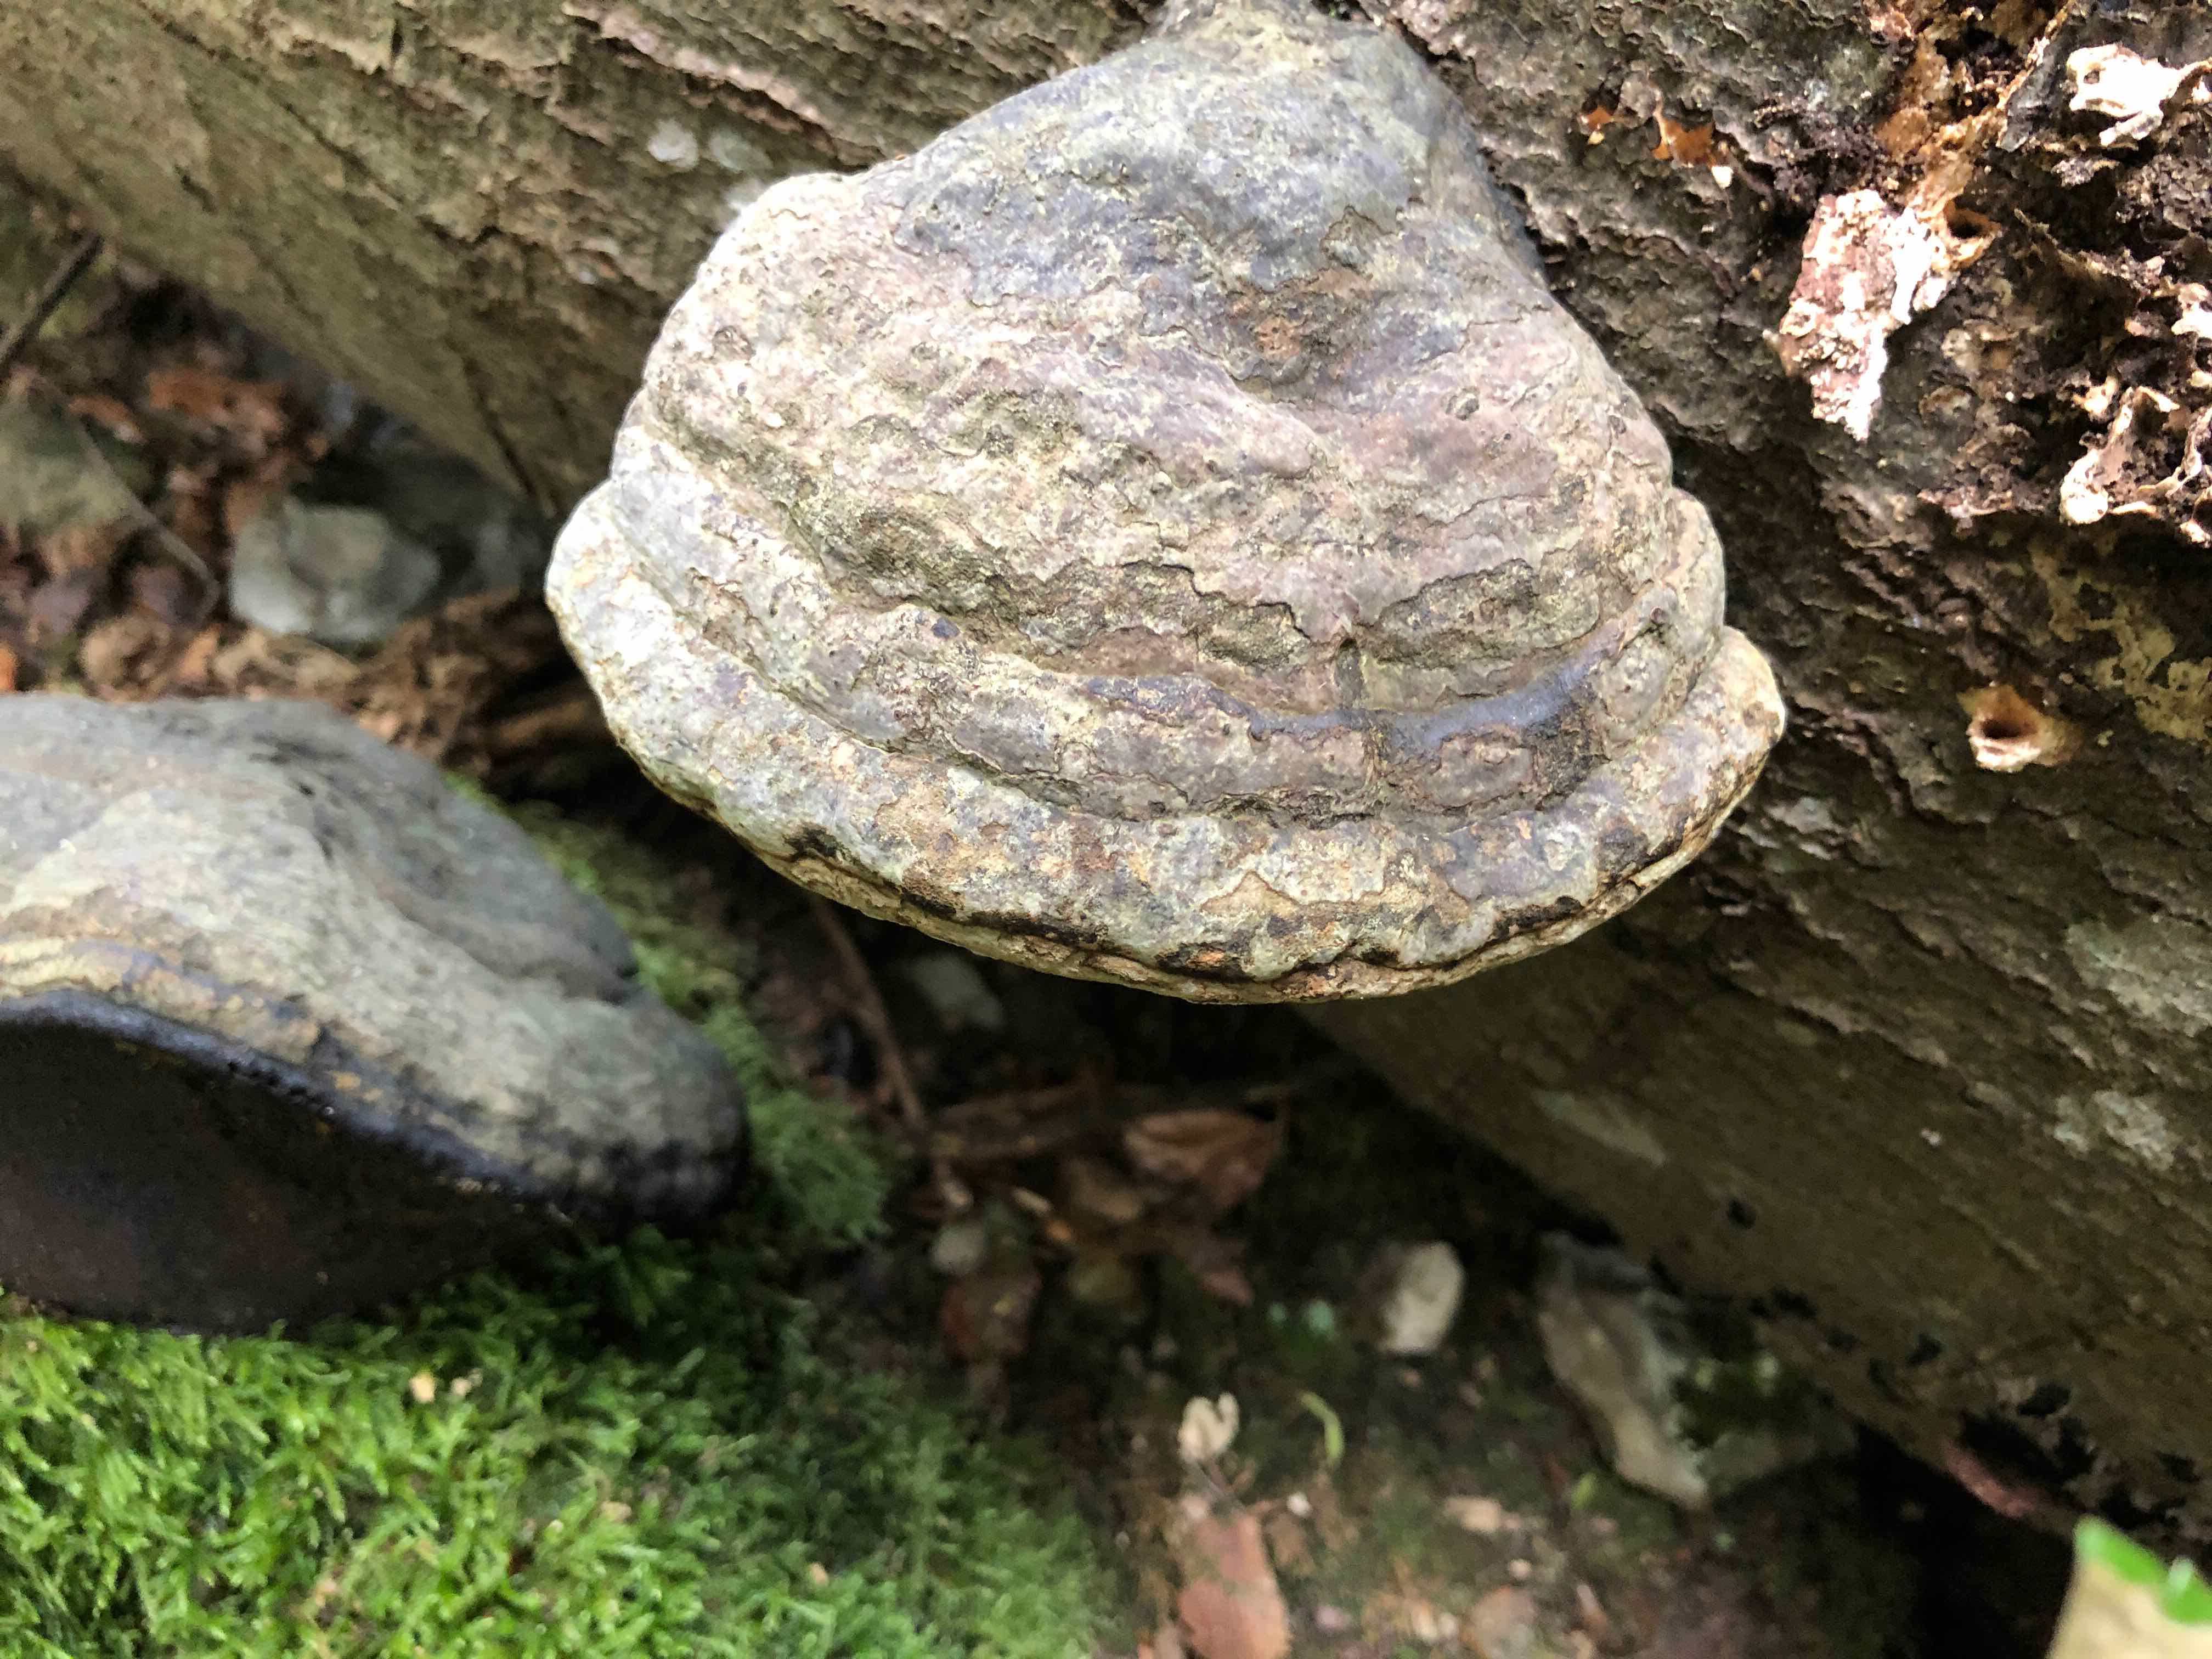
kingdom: Fungi
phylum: Basidiomycota
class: Agaricomycetes
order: Polyporales
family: Polyporaceae
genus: Fomes
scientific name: Fomes fomentarius
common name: tøndersvamp
